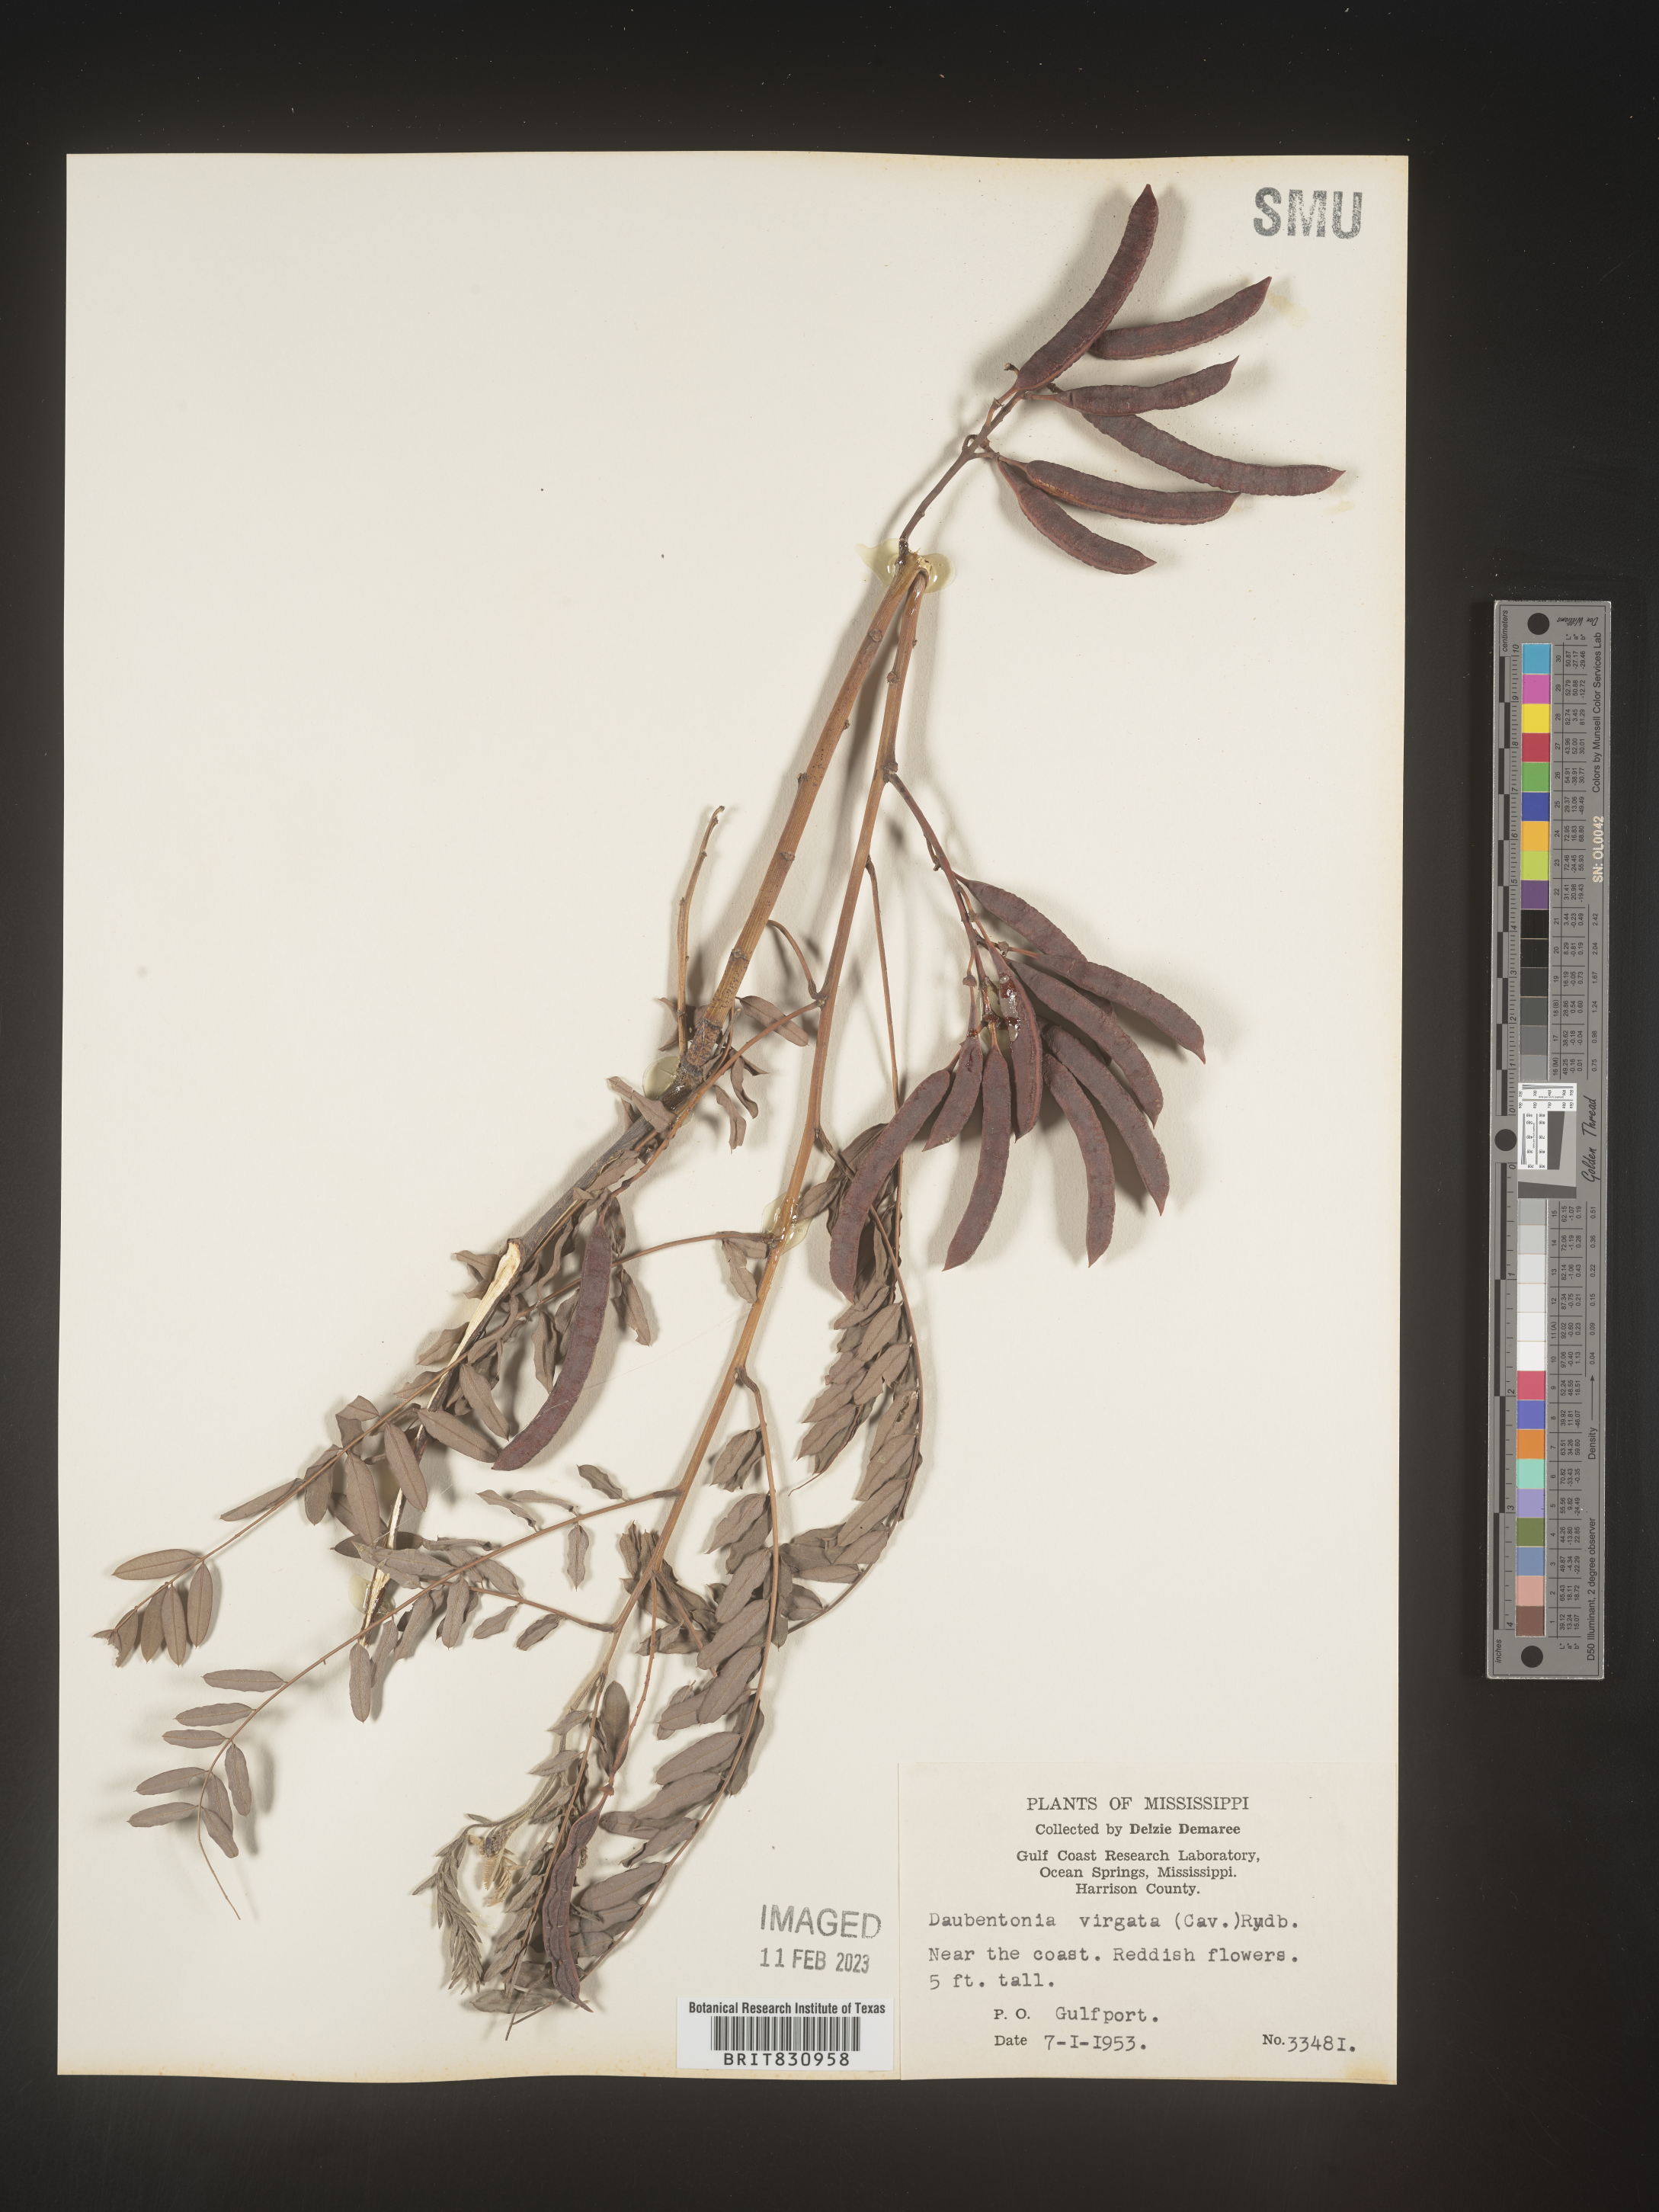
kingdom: Plantae
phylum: Tracheophyta
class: Magnoliopsida
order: Fabales
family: Fabaceae
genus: Sesbania
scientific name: Sesbania
